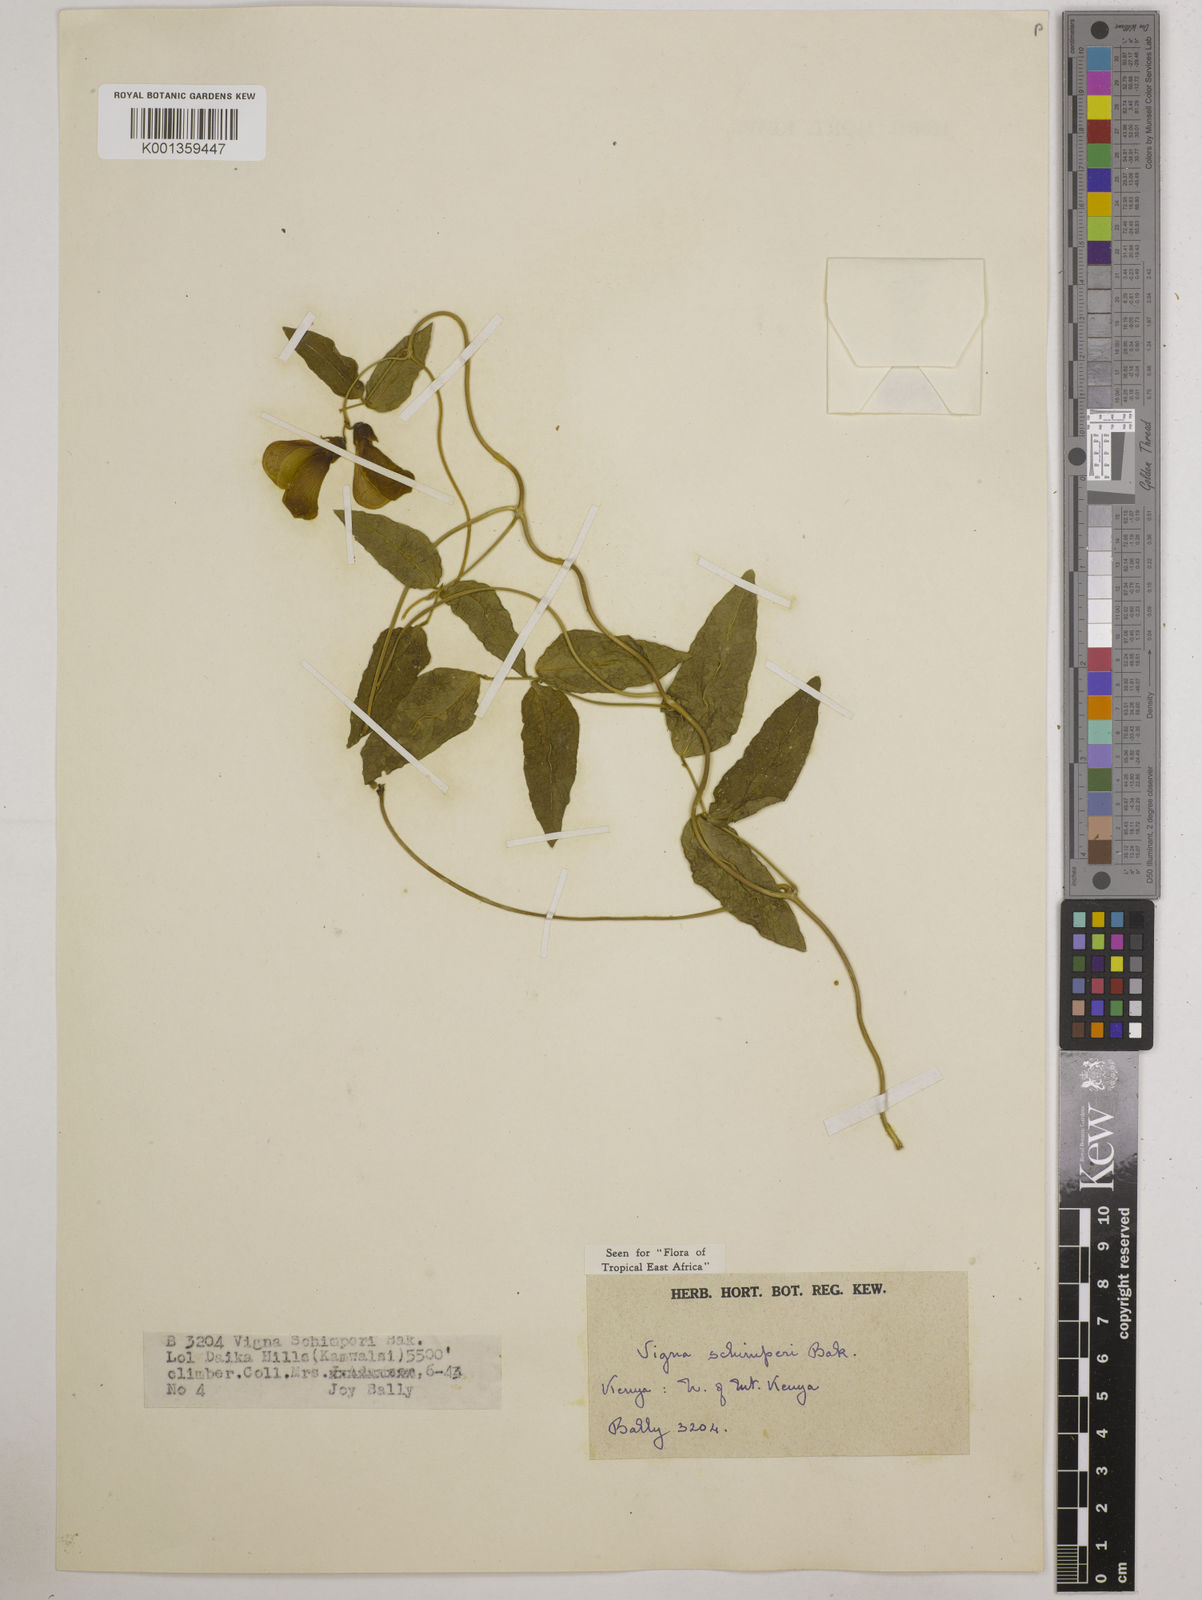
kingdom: Plantae
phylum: Tracheophyta
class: Magnoliopsida
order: Fabales
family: Fabaceae
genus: Vigna
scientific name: Vigna schimperi
